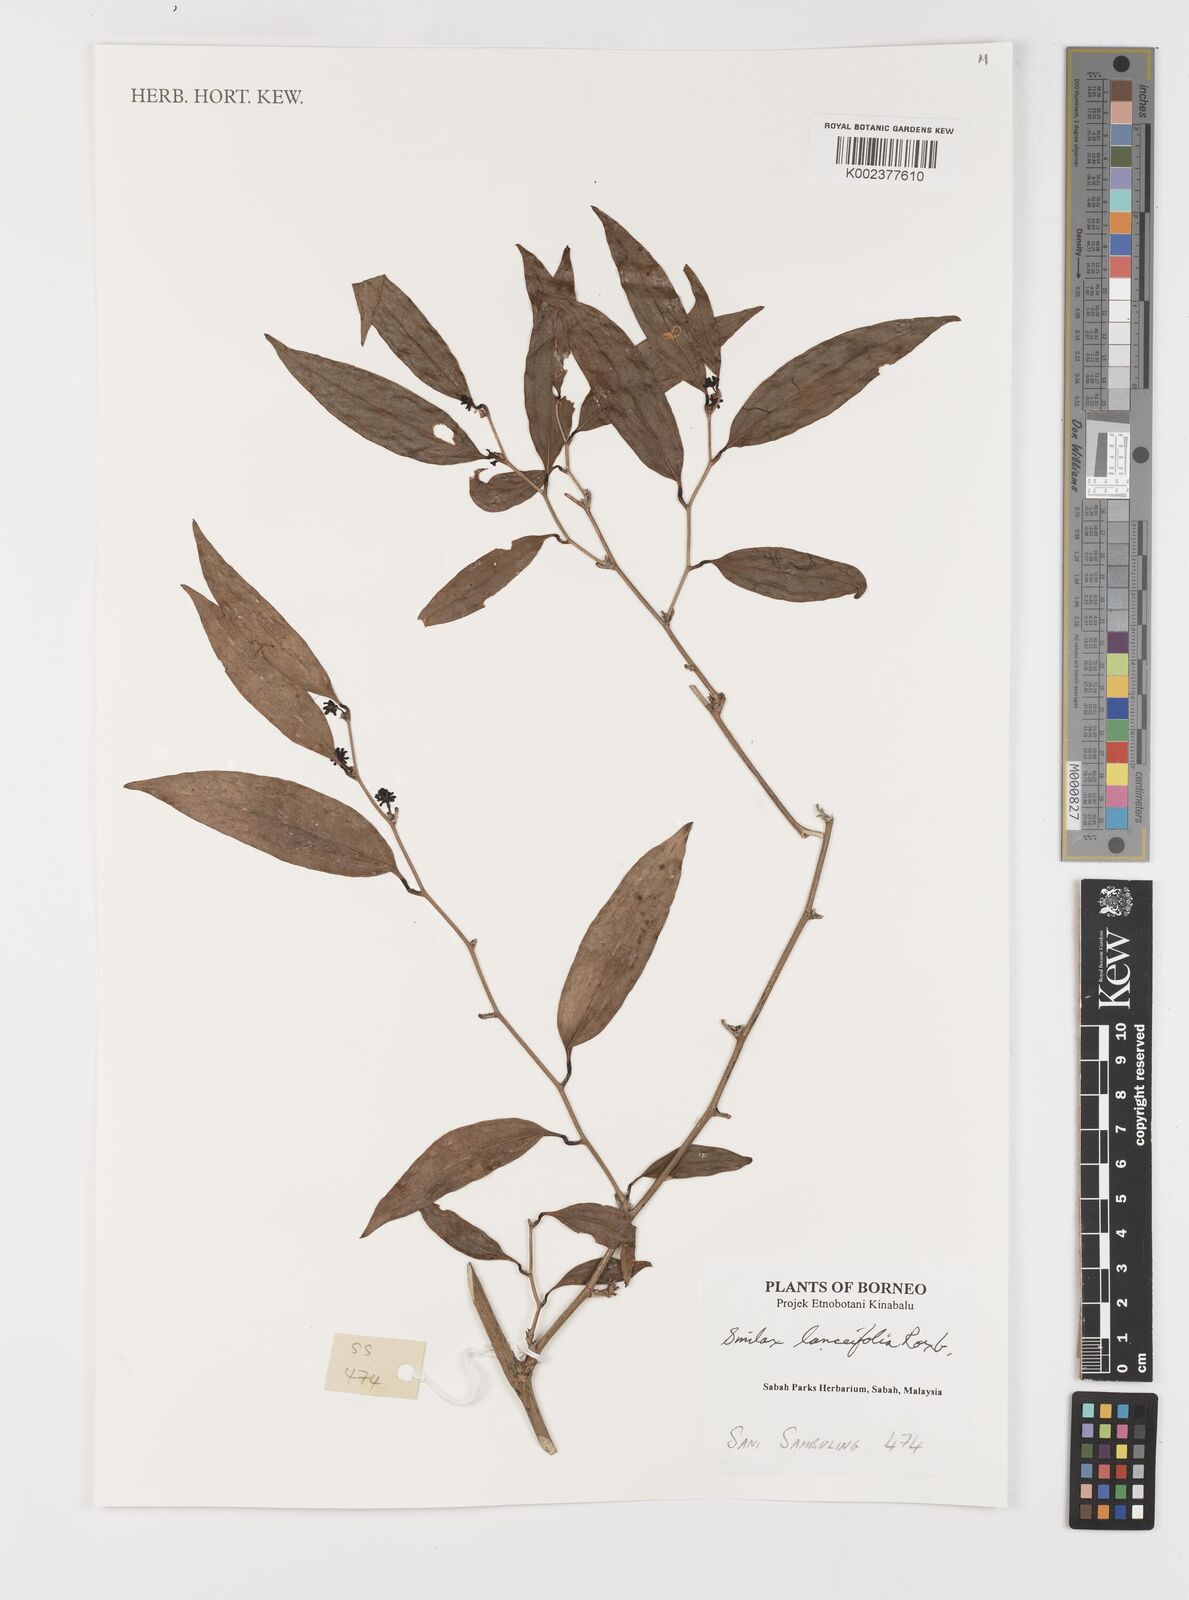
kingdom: Plantae
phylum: Tracheophyta
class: Liliopsida
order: Liliales
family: Smilacaceae
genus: Smilax
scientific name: Smilax lanceifolia
